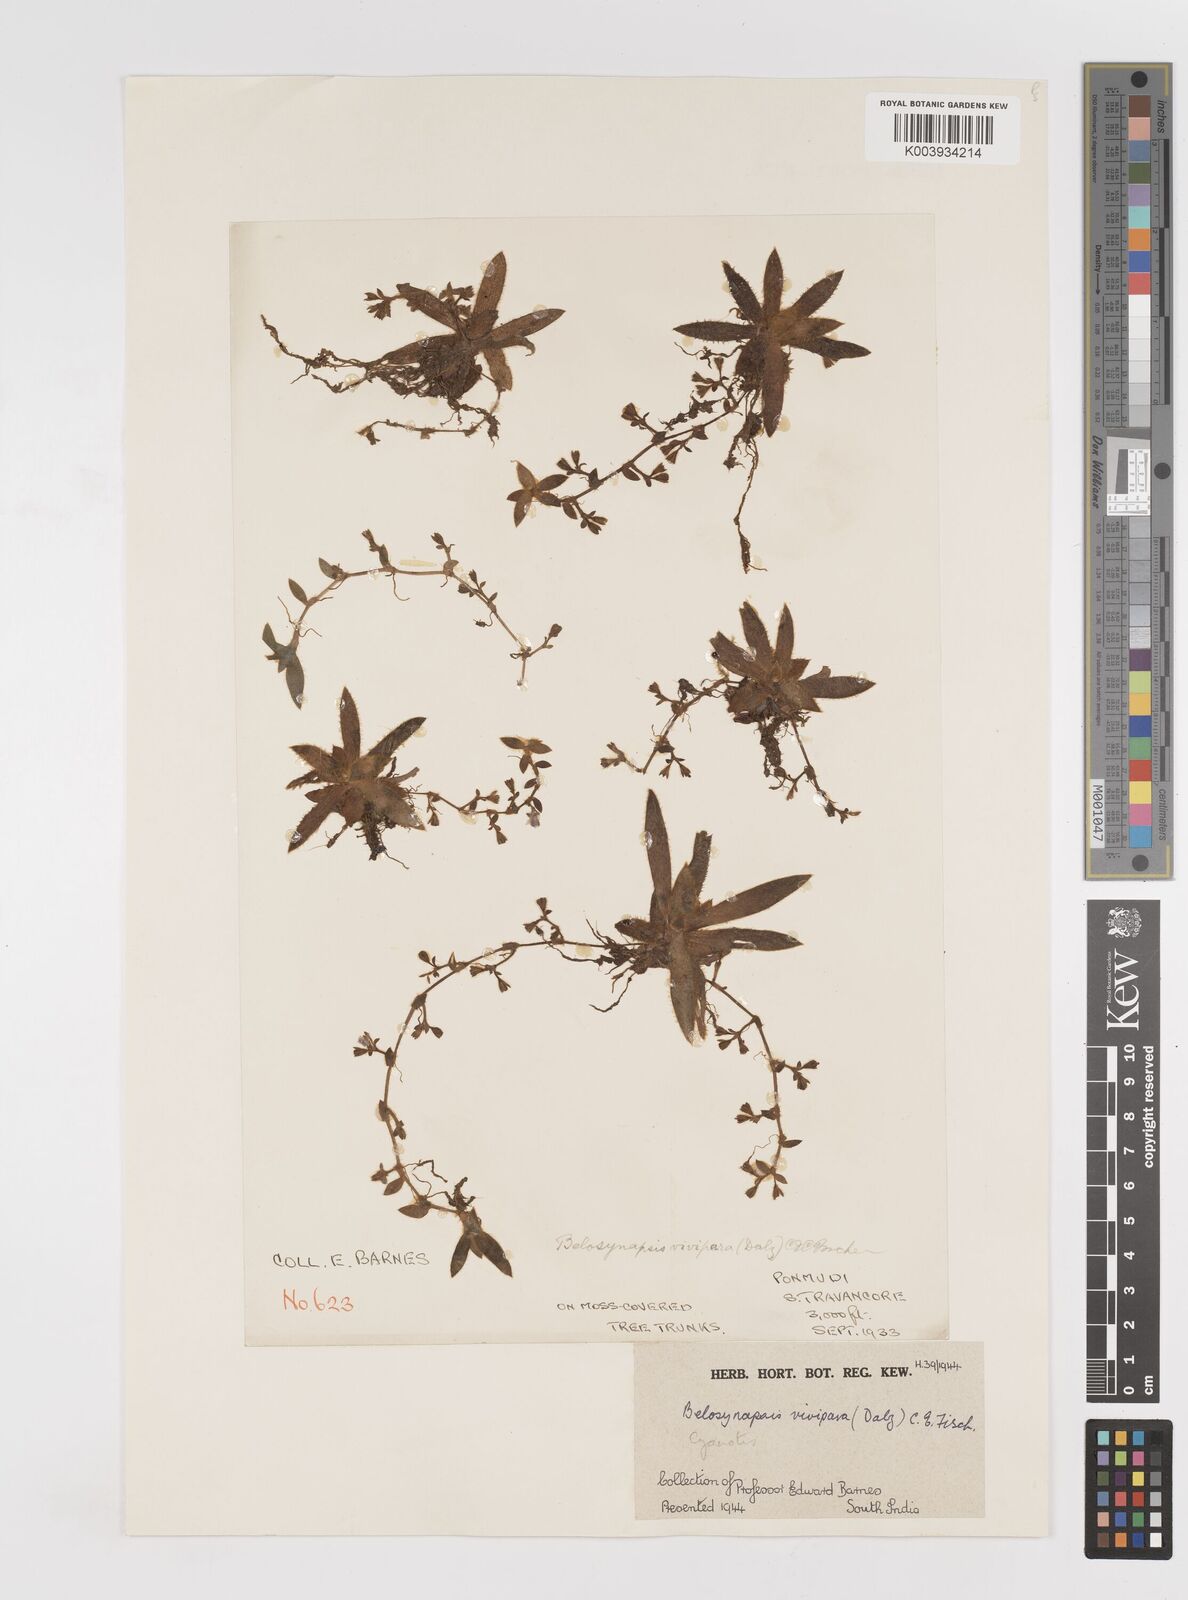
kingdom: Plantae
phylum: Tracheophyta
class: Liliopsida
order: Commelinales
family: Commelinaceae
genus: Cyanotis
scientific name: Cyanotis vivipara
